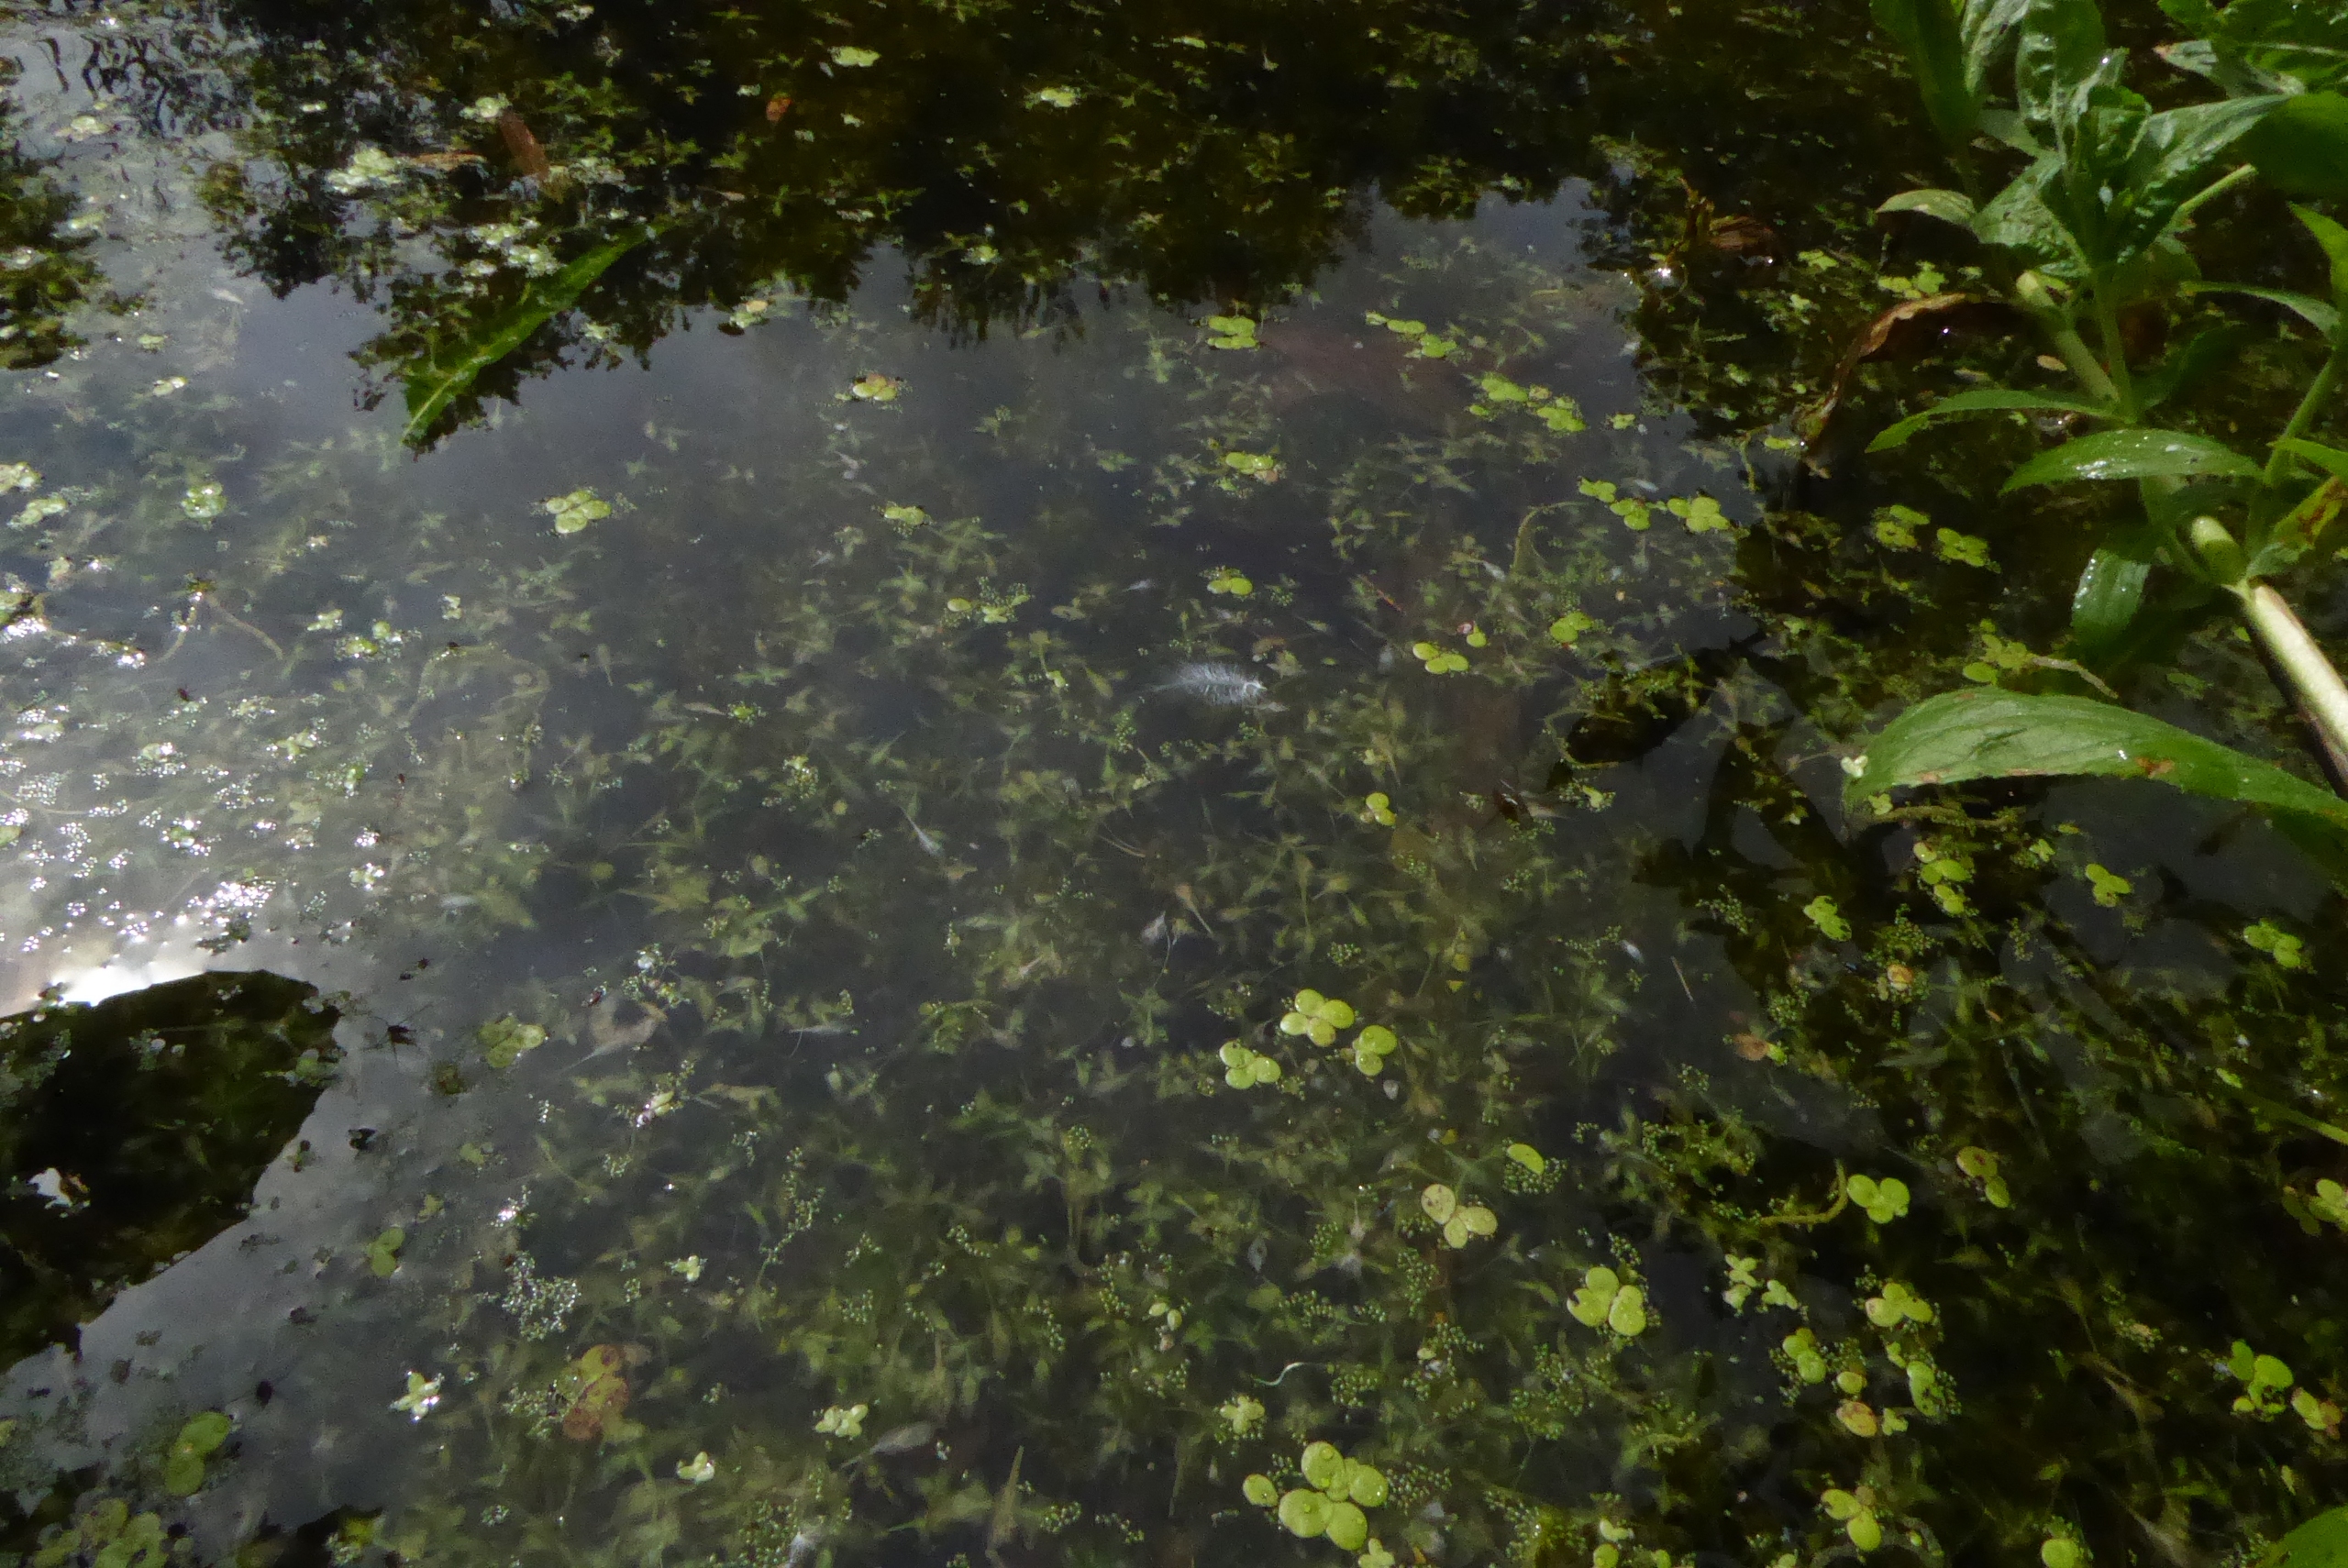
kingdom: Plantae
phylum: Tracheophyta
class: Liliopsida
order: Alismatales
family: Araceae
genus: Lemna
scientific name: Lemna trisulca
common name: Kors-andemad
